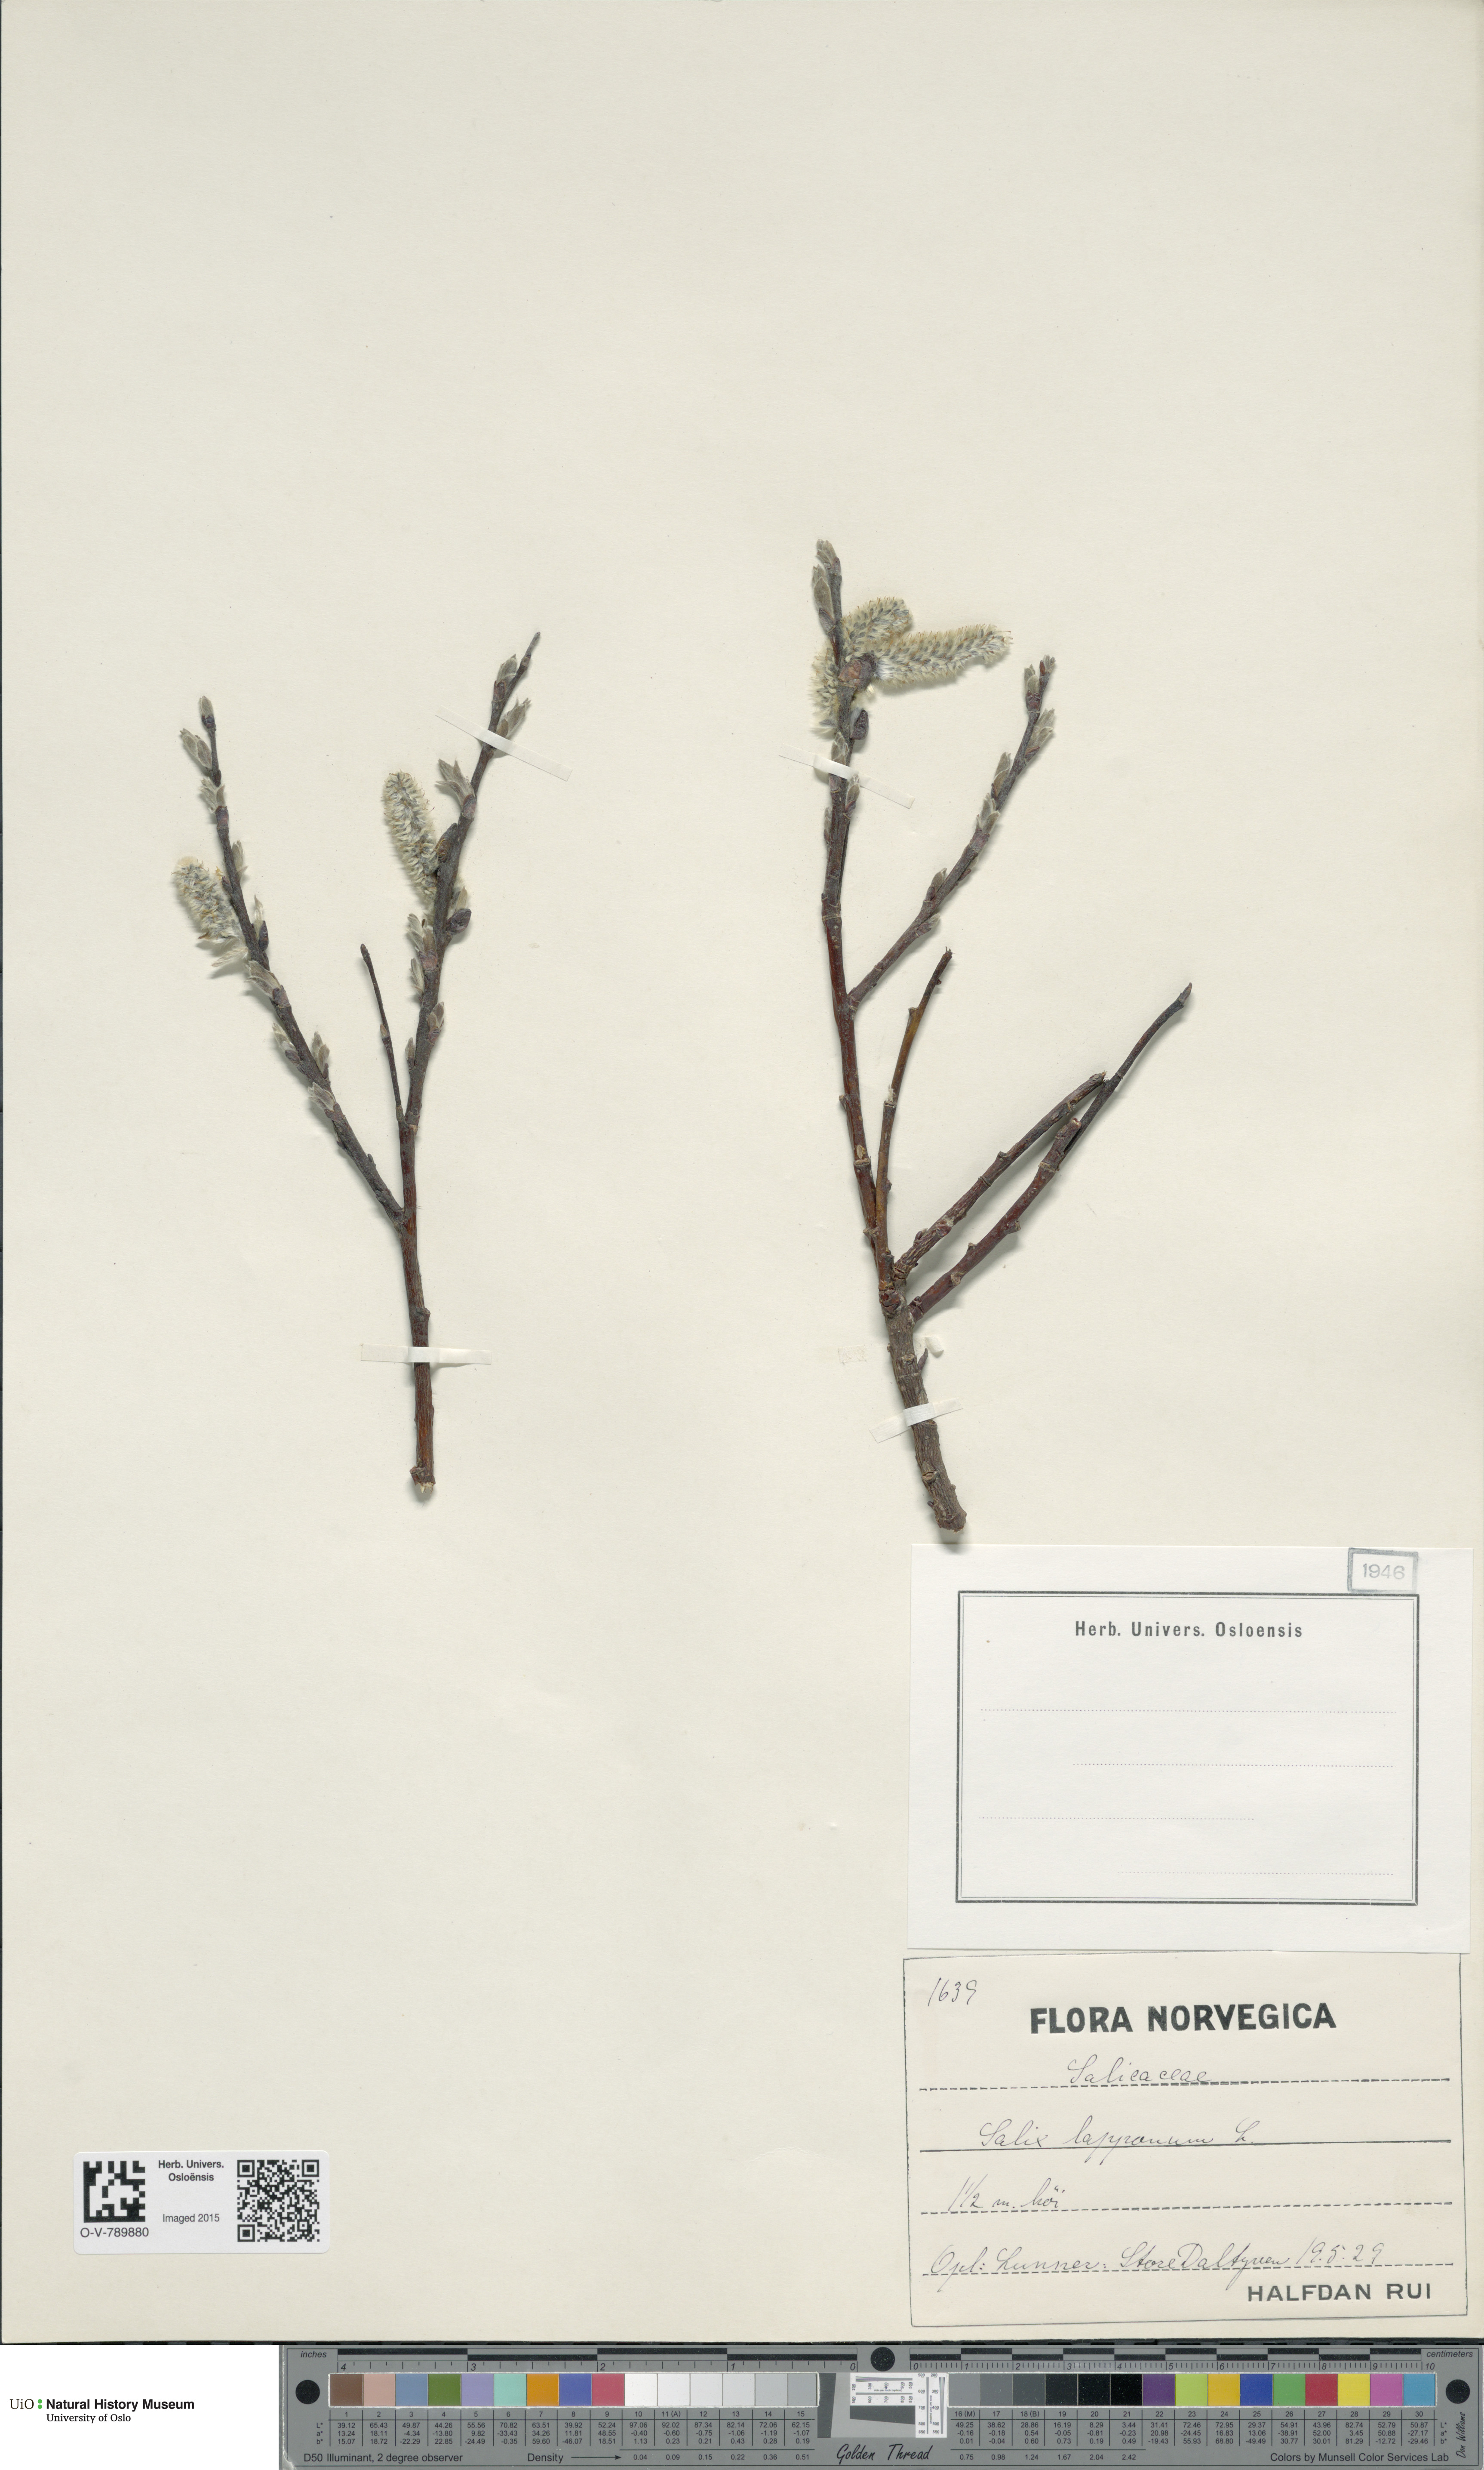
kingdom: Plantae
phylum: Tracheophyta
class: Magnoliopsida
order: Malpighiales
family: Salicaceae
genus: Salix
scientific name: Salix lapponum
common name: Downy willow
